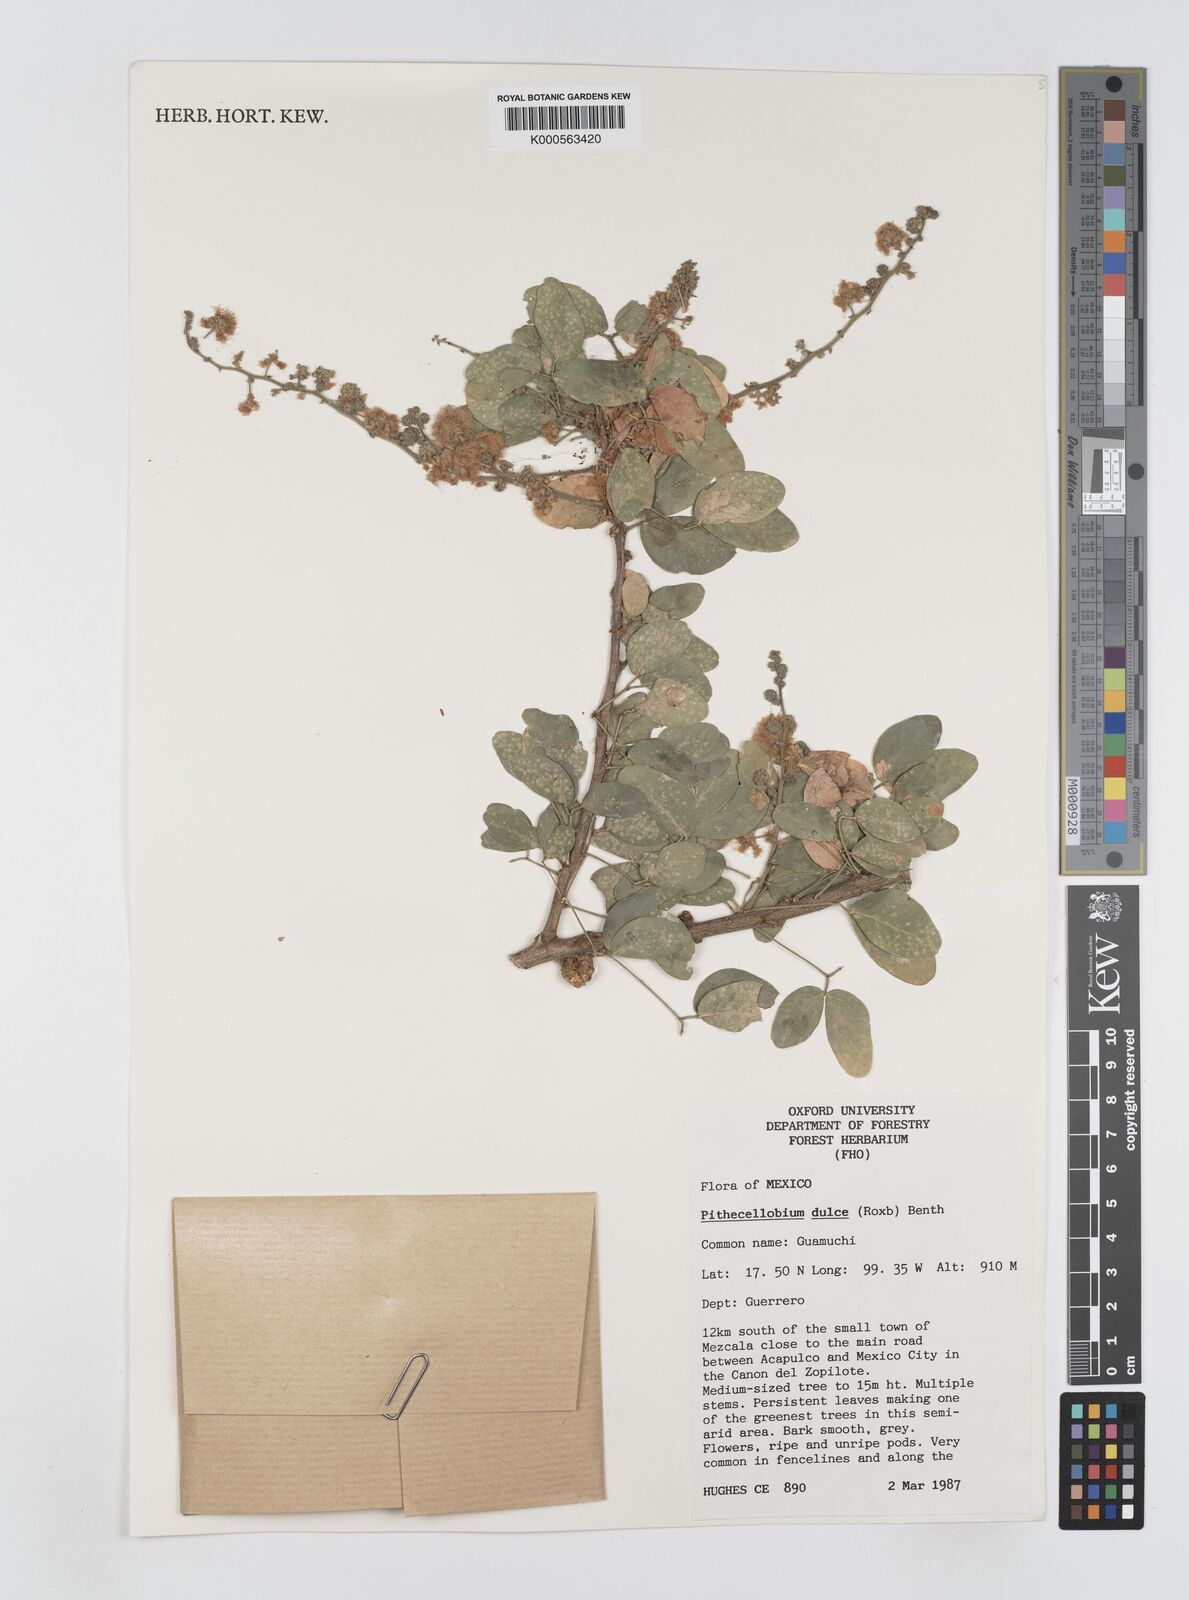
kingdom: Plantae
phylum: Tracheophyta
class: Magnoliopsida
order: Fabales
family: Fabaceae
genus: Pithecellobium
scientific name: Pithecellobium dulce
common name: Monkeypod
